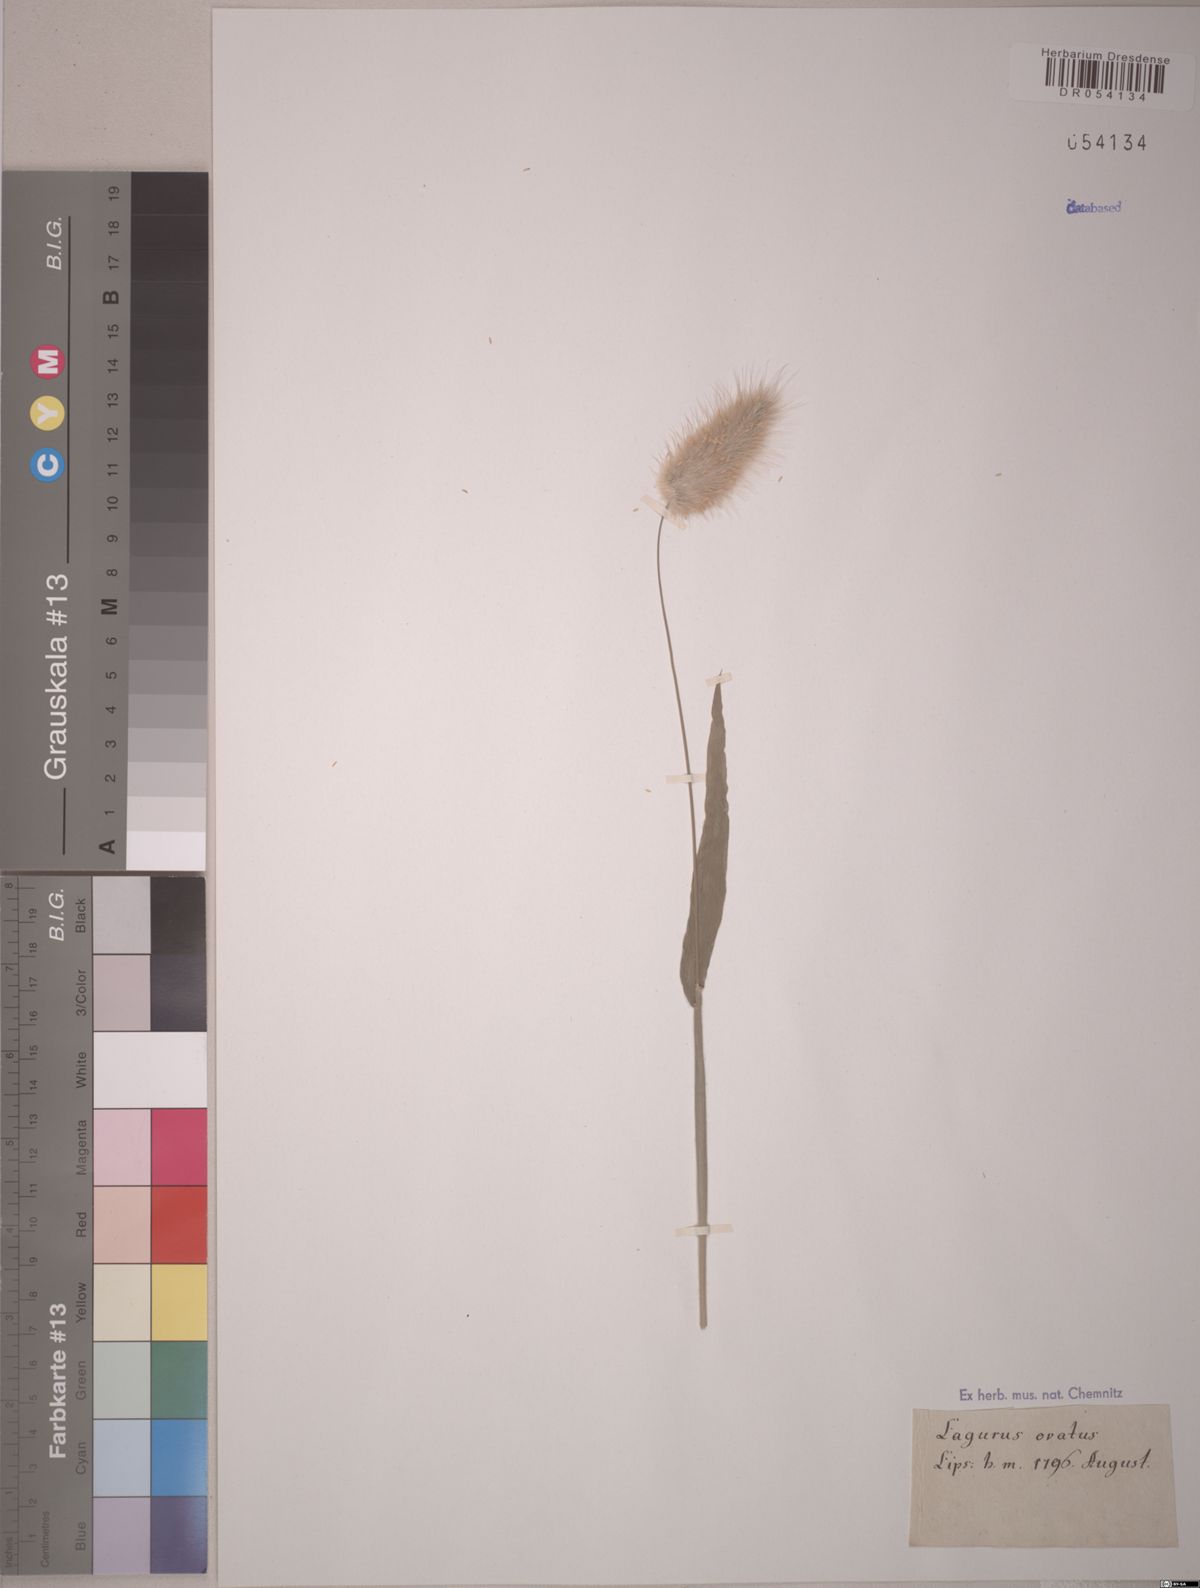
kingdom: Plantae
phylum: Tracheophyta
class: Liliopsida
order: Poales
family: Poaceae
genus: Lagurus
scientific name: Lagurus ovatus
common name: Hare's-tail
